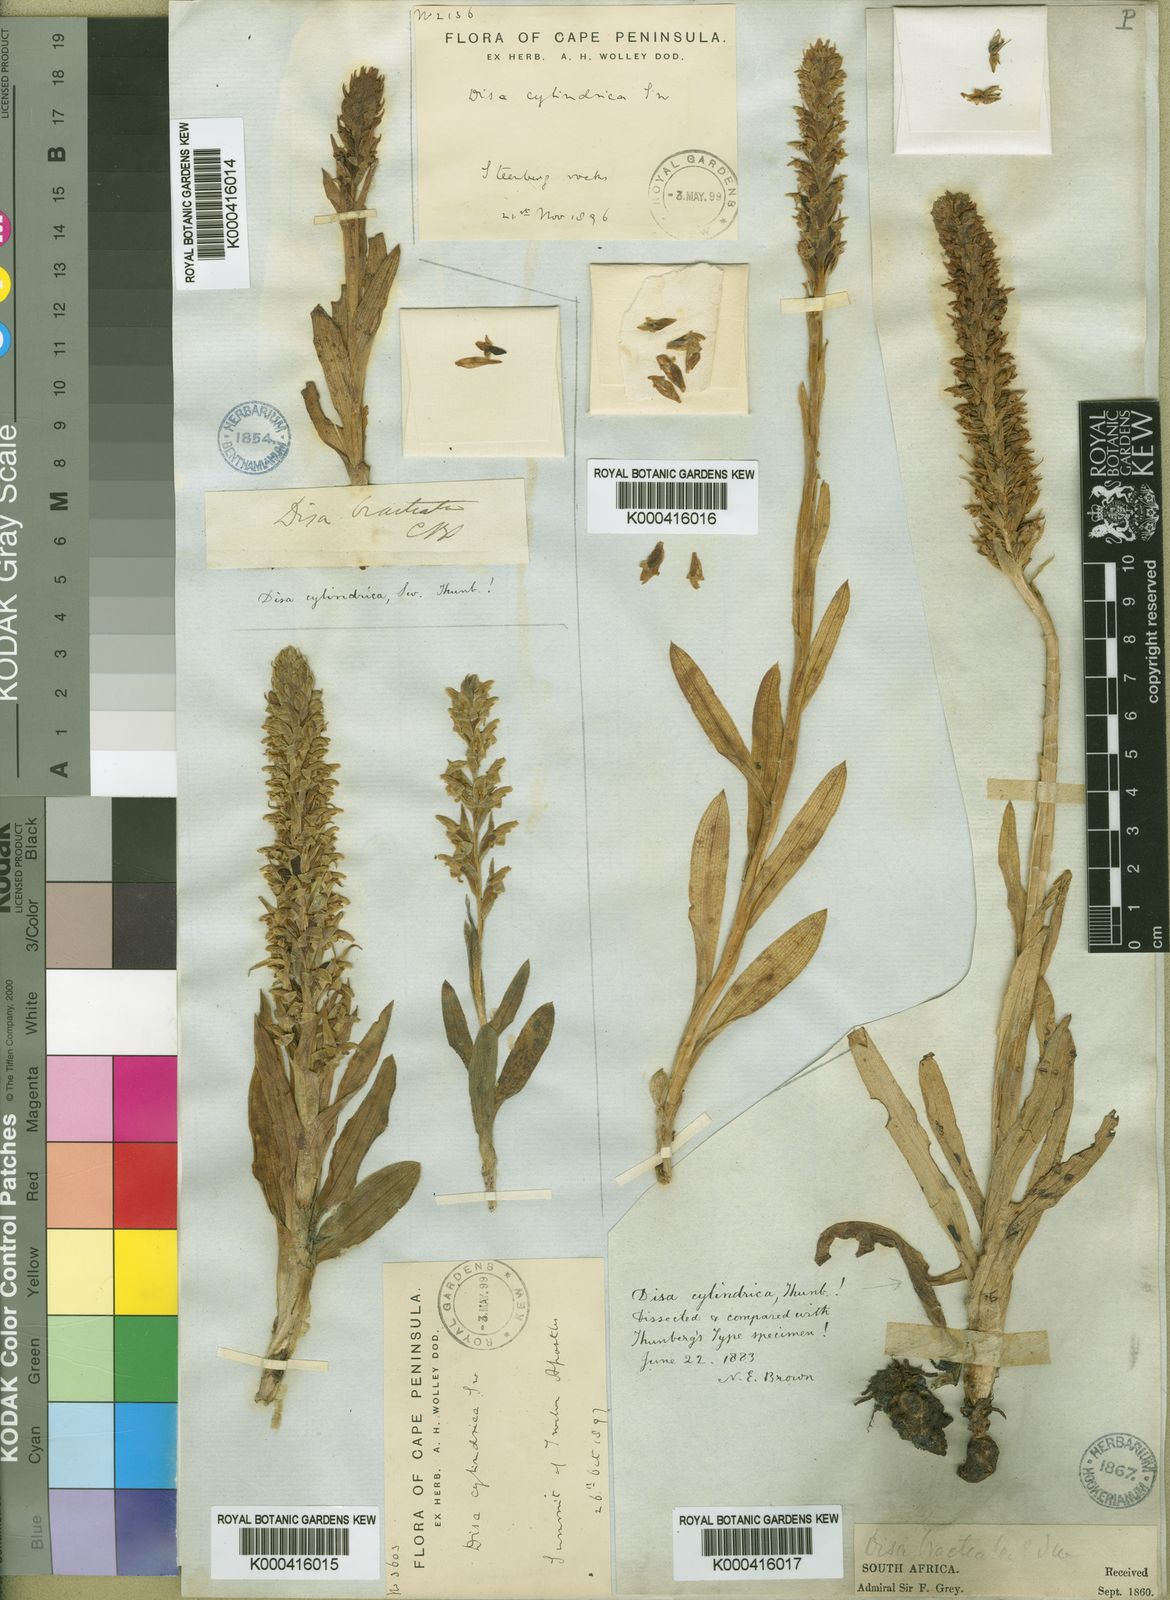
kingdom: Plantae
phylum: Tracheophyta
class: Liliopsida
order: Asparagales
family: Orchidaceae
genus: Disa
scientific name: Disa cylindrica
